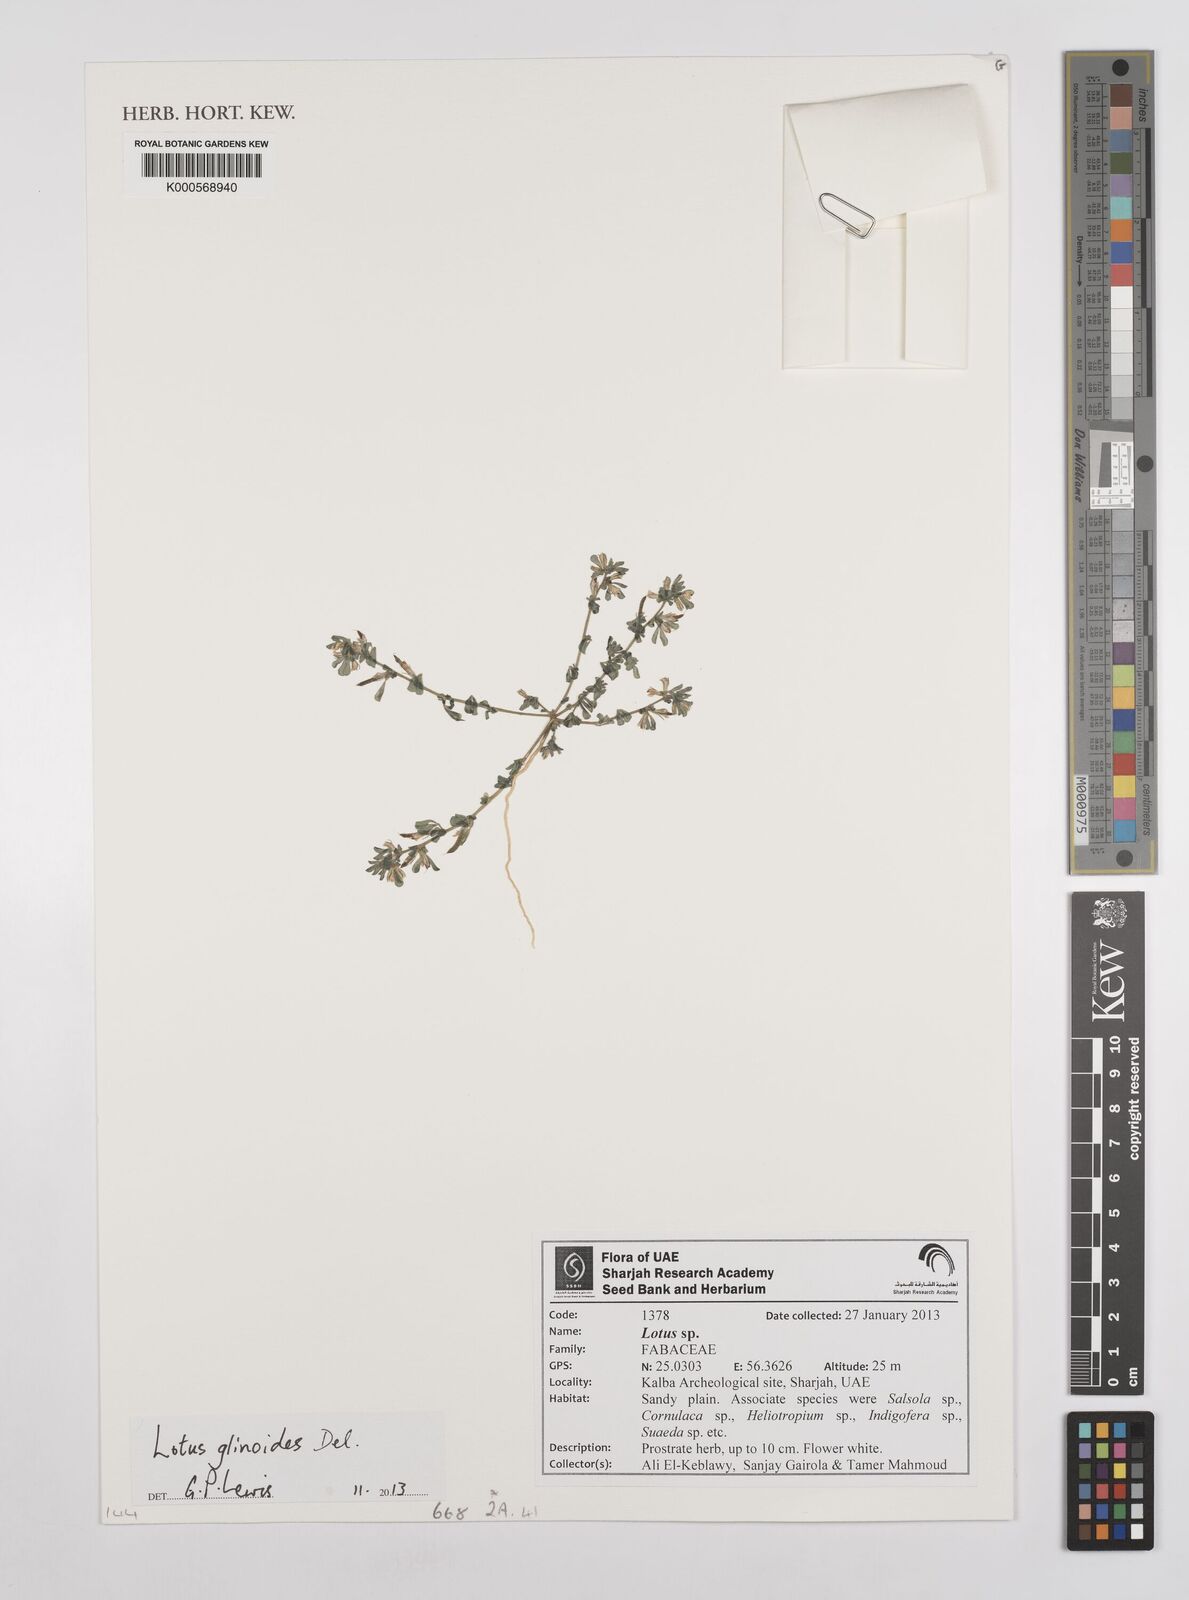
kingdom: Plantae
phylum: Tracheophyta
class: Magnoliopsida
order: Fabales
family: Fabaceae
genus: Lotus
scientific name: Lotus glinoides
